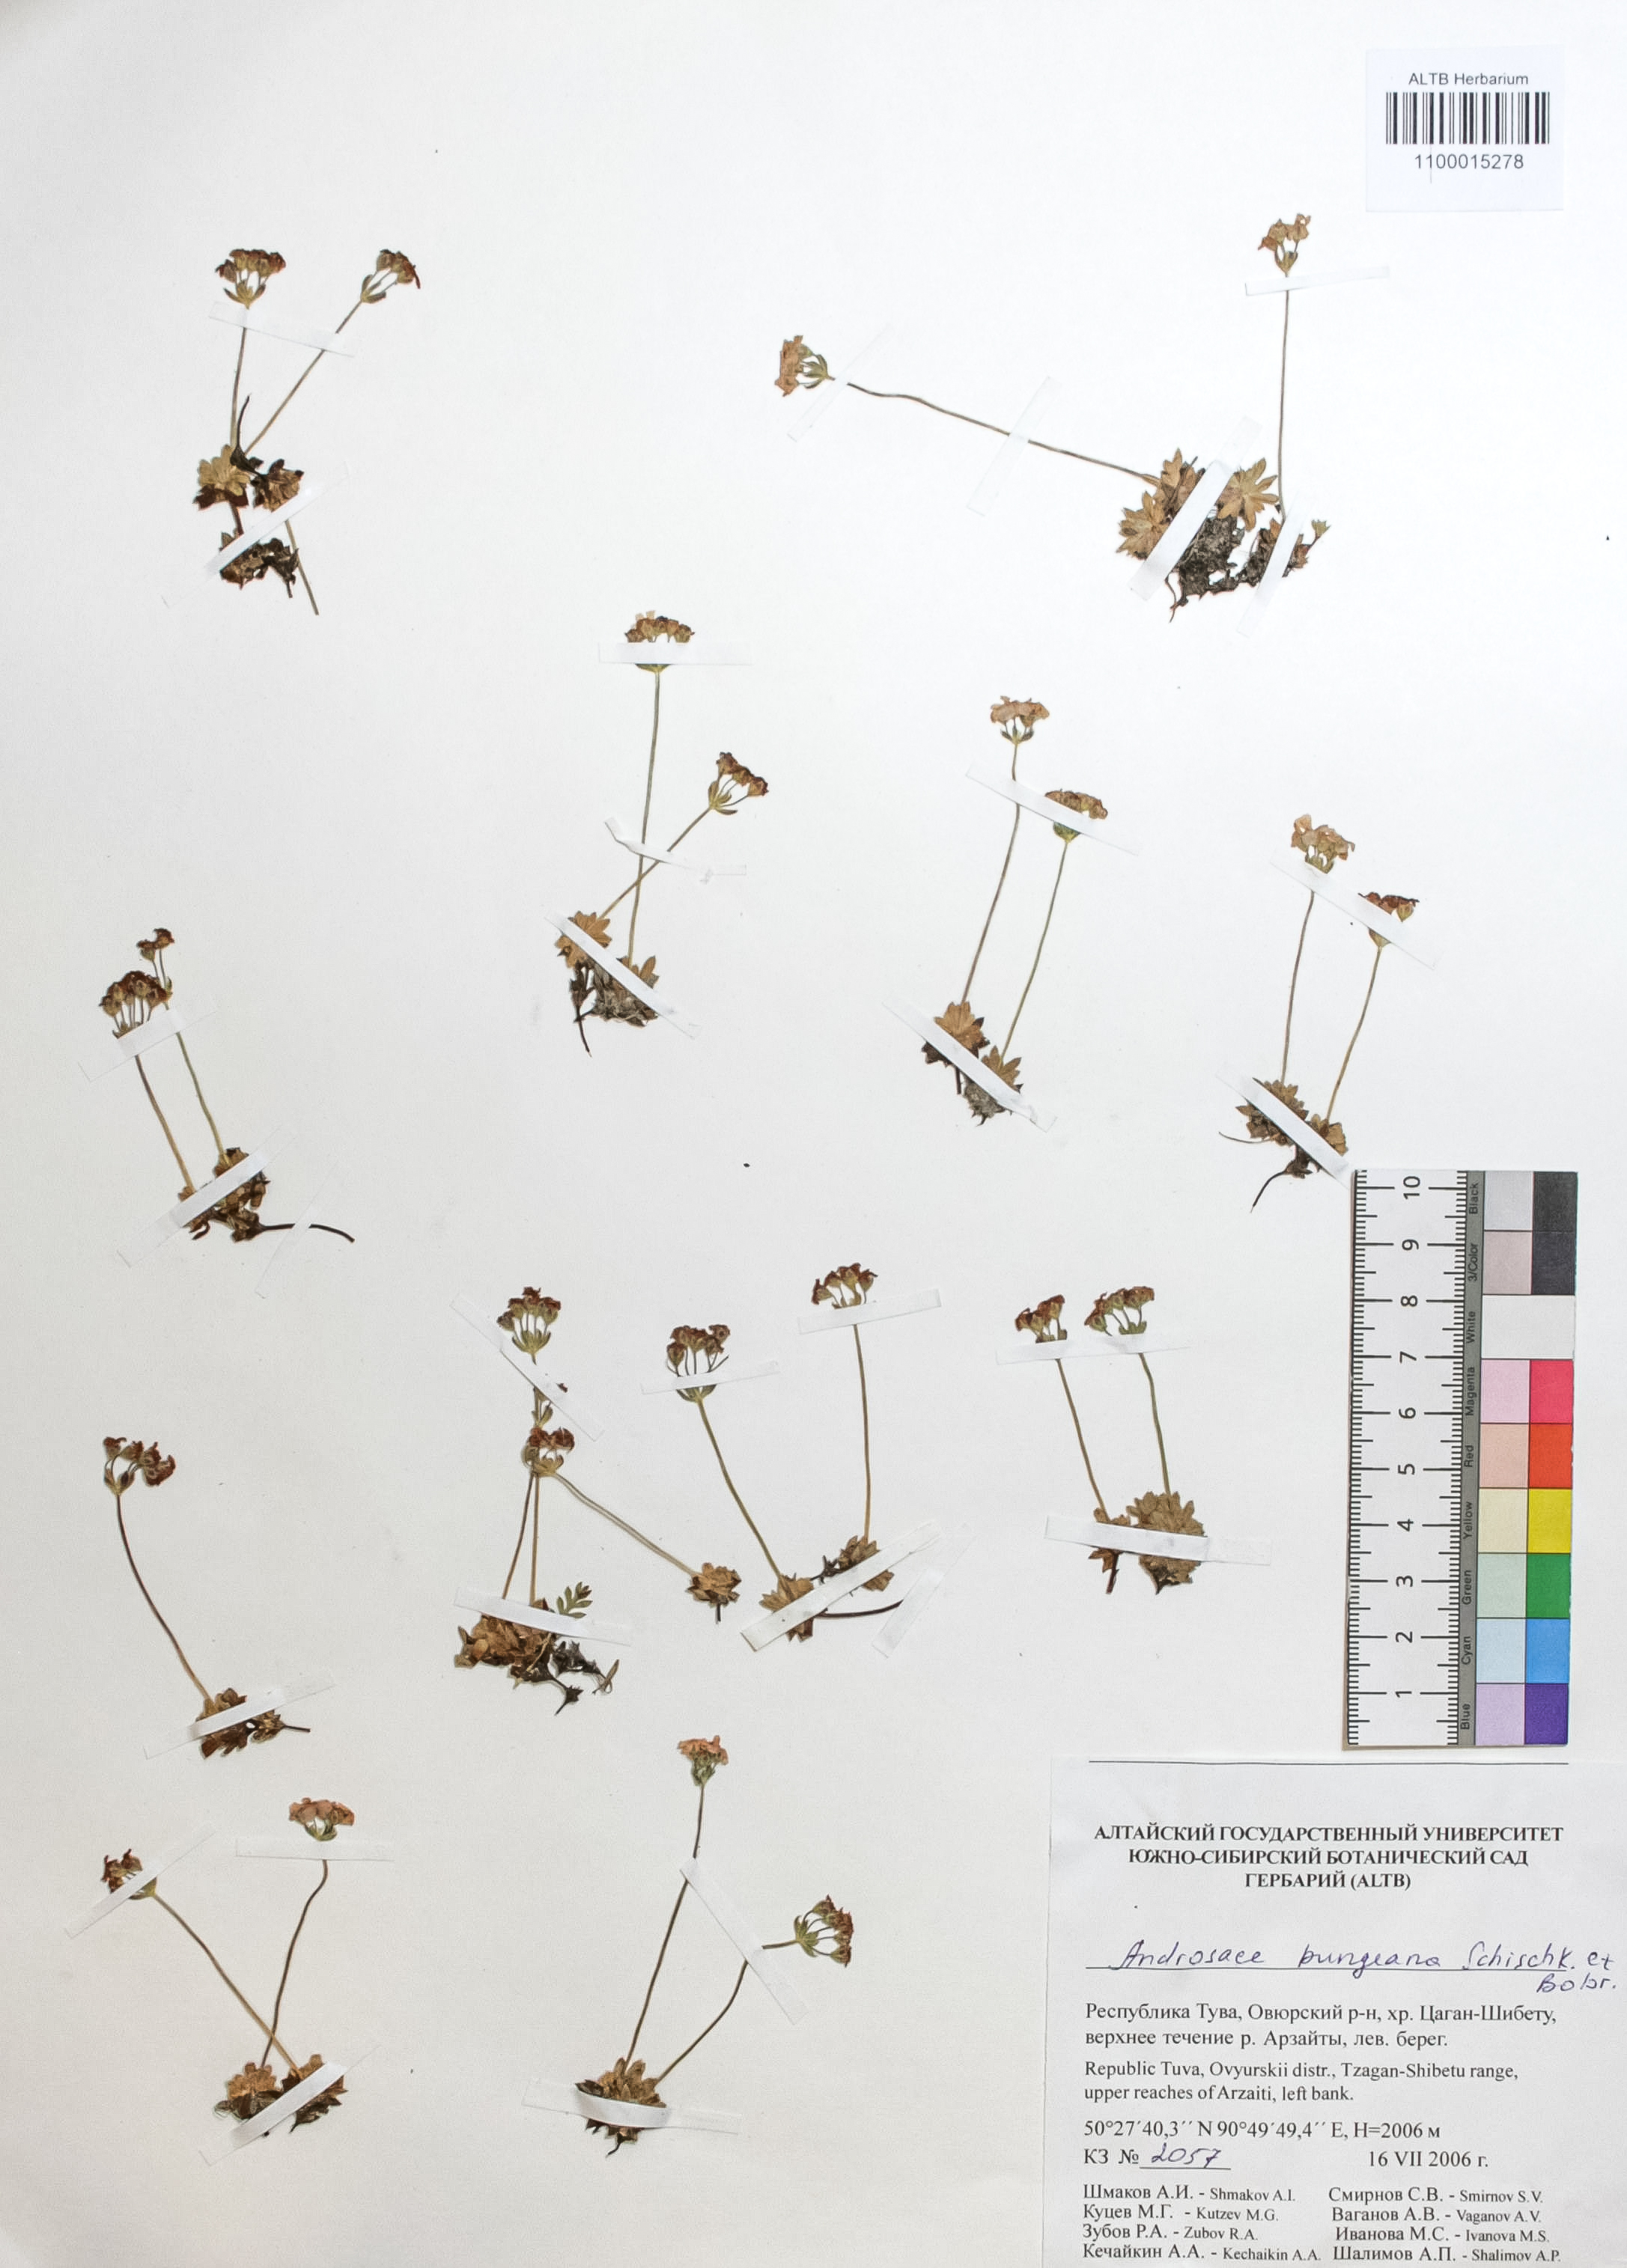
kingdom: Plantae
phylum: Tracheophyta
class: Magnoliopsida
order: Ericales
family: Primulaceae
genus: Androsace
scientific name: Androsace bungeana
